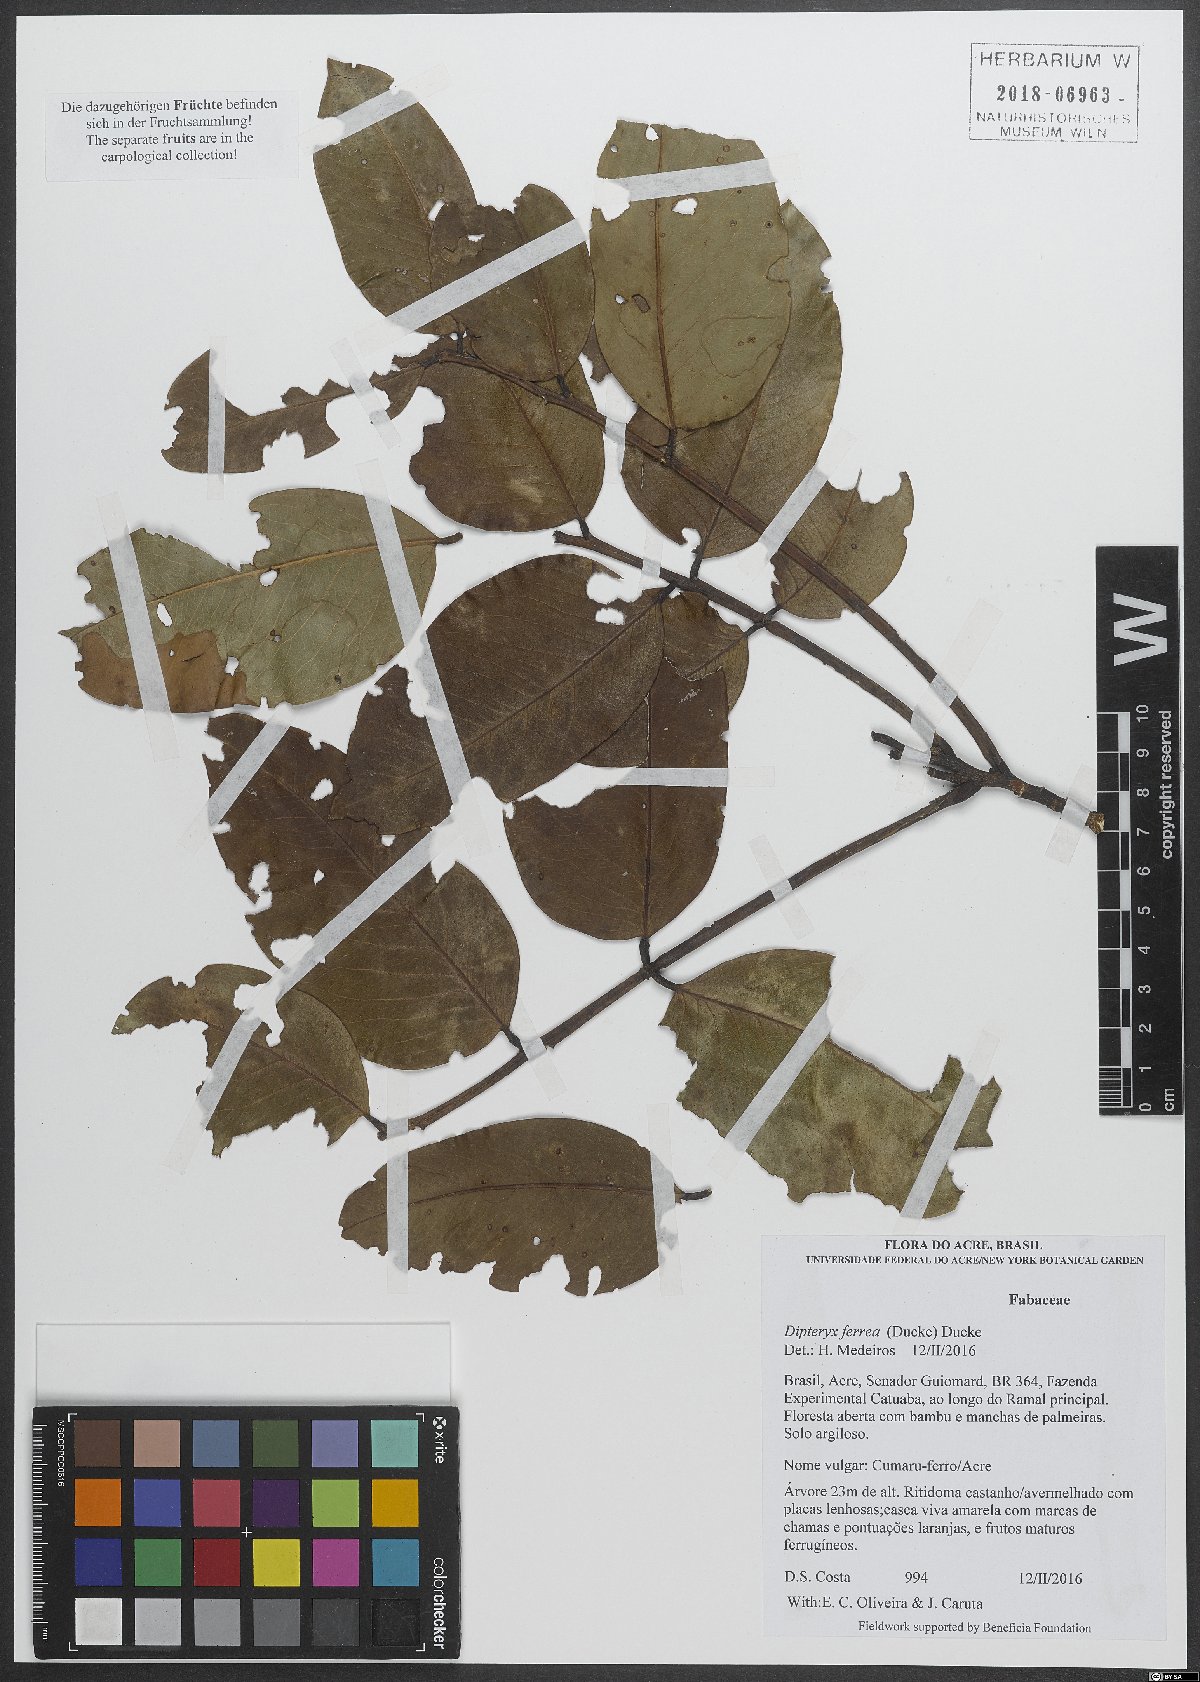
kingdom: Plantae
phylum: Tracheophyta
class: Magnoliopsida
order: Fabales
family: Fabaceae
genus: Dipteryx
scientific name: Dipteryx ferrea
